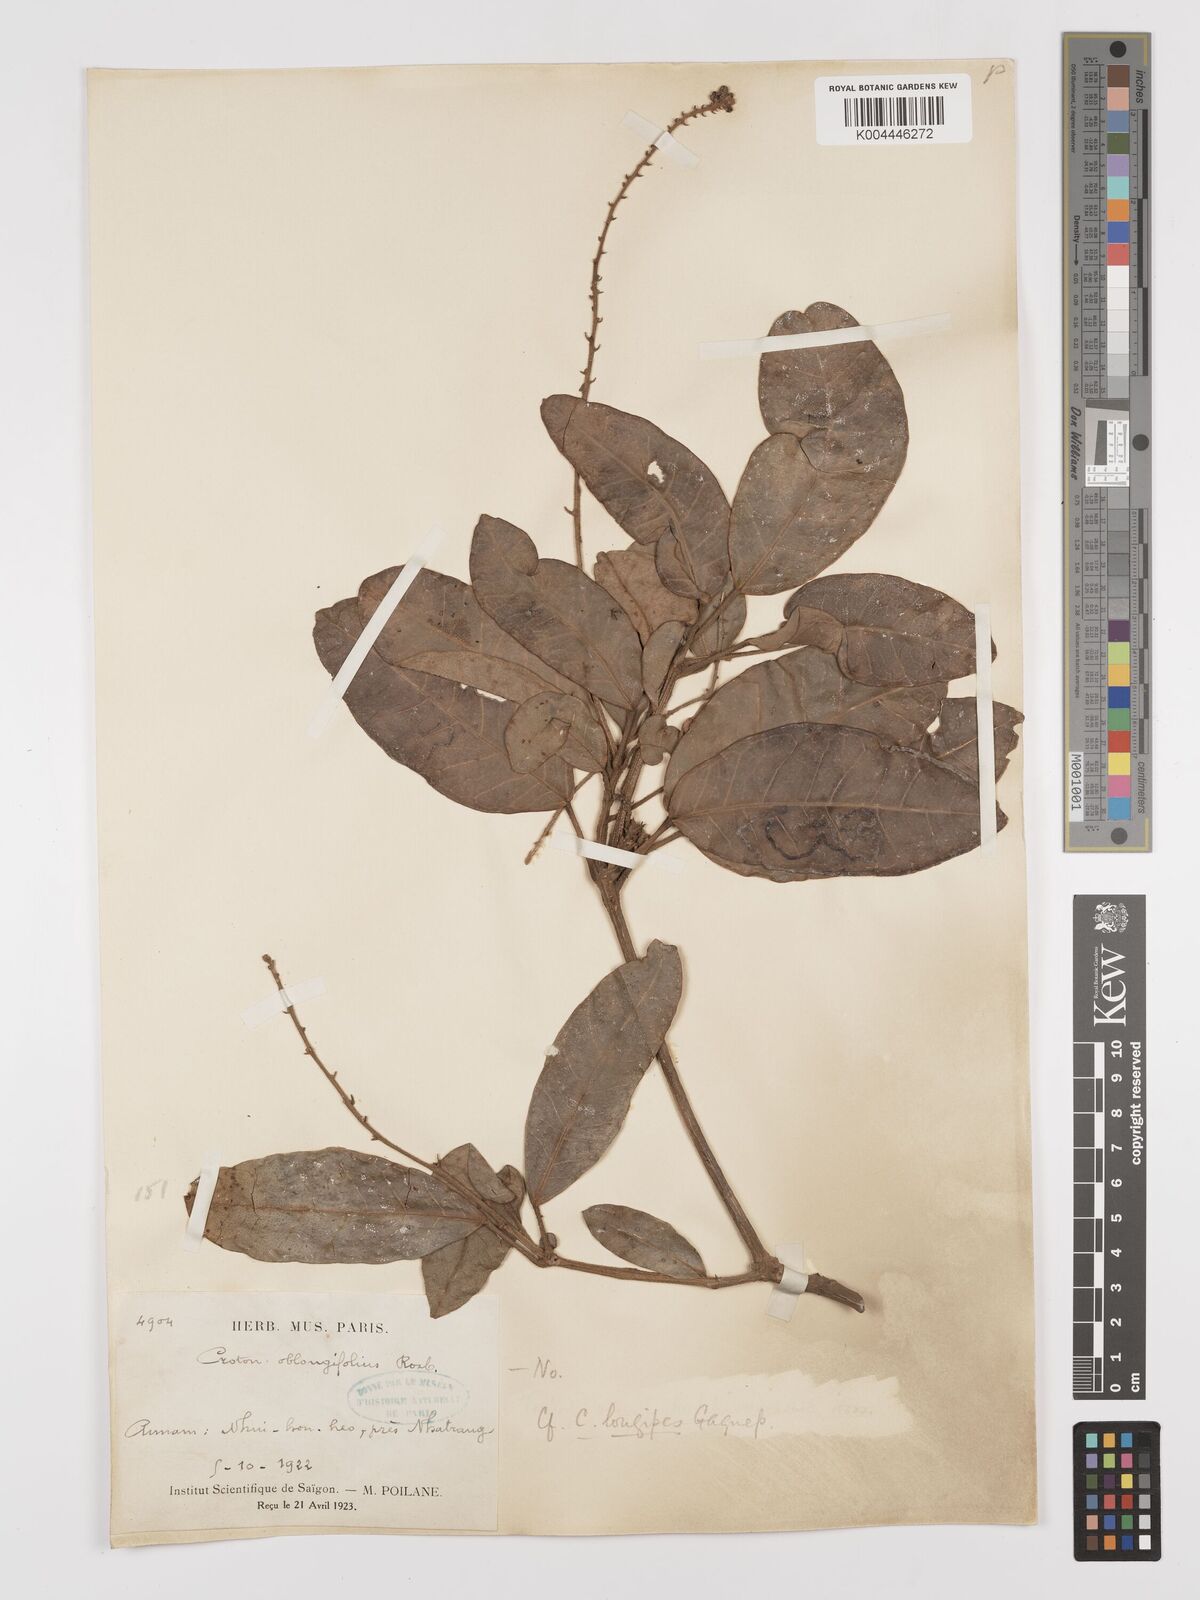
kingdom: Plantae
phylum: Tracheophyta
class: Magnoliopsida
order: Malpighiales
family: Euphorbiaceae
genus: Croton
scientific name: Croton
